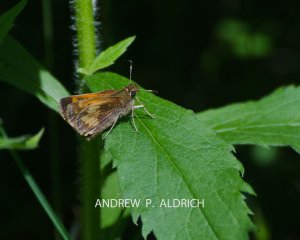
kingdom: Animalia
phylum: Arthropoda
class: Insecta
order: Lepidoptera
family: Hesperiidae
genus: Lon
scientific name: Lon hobomok
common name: Hobomok Skipper
